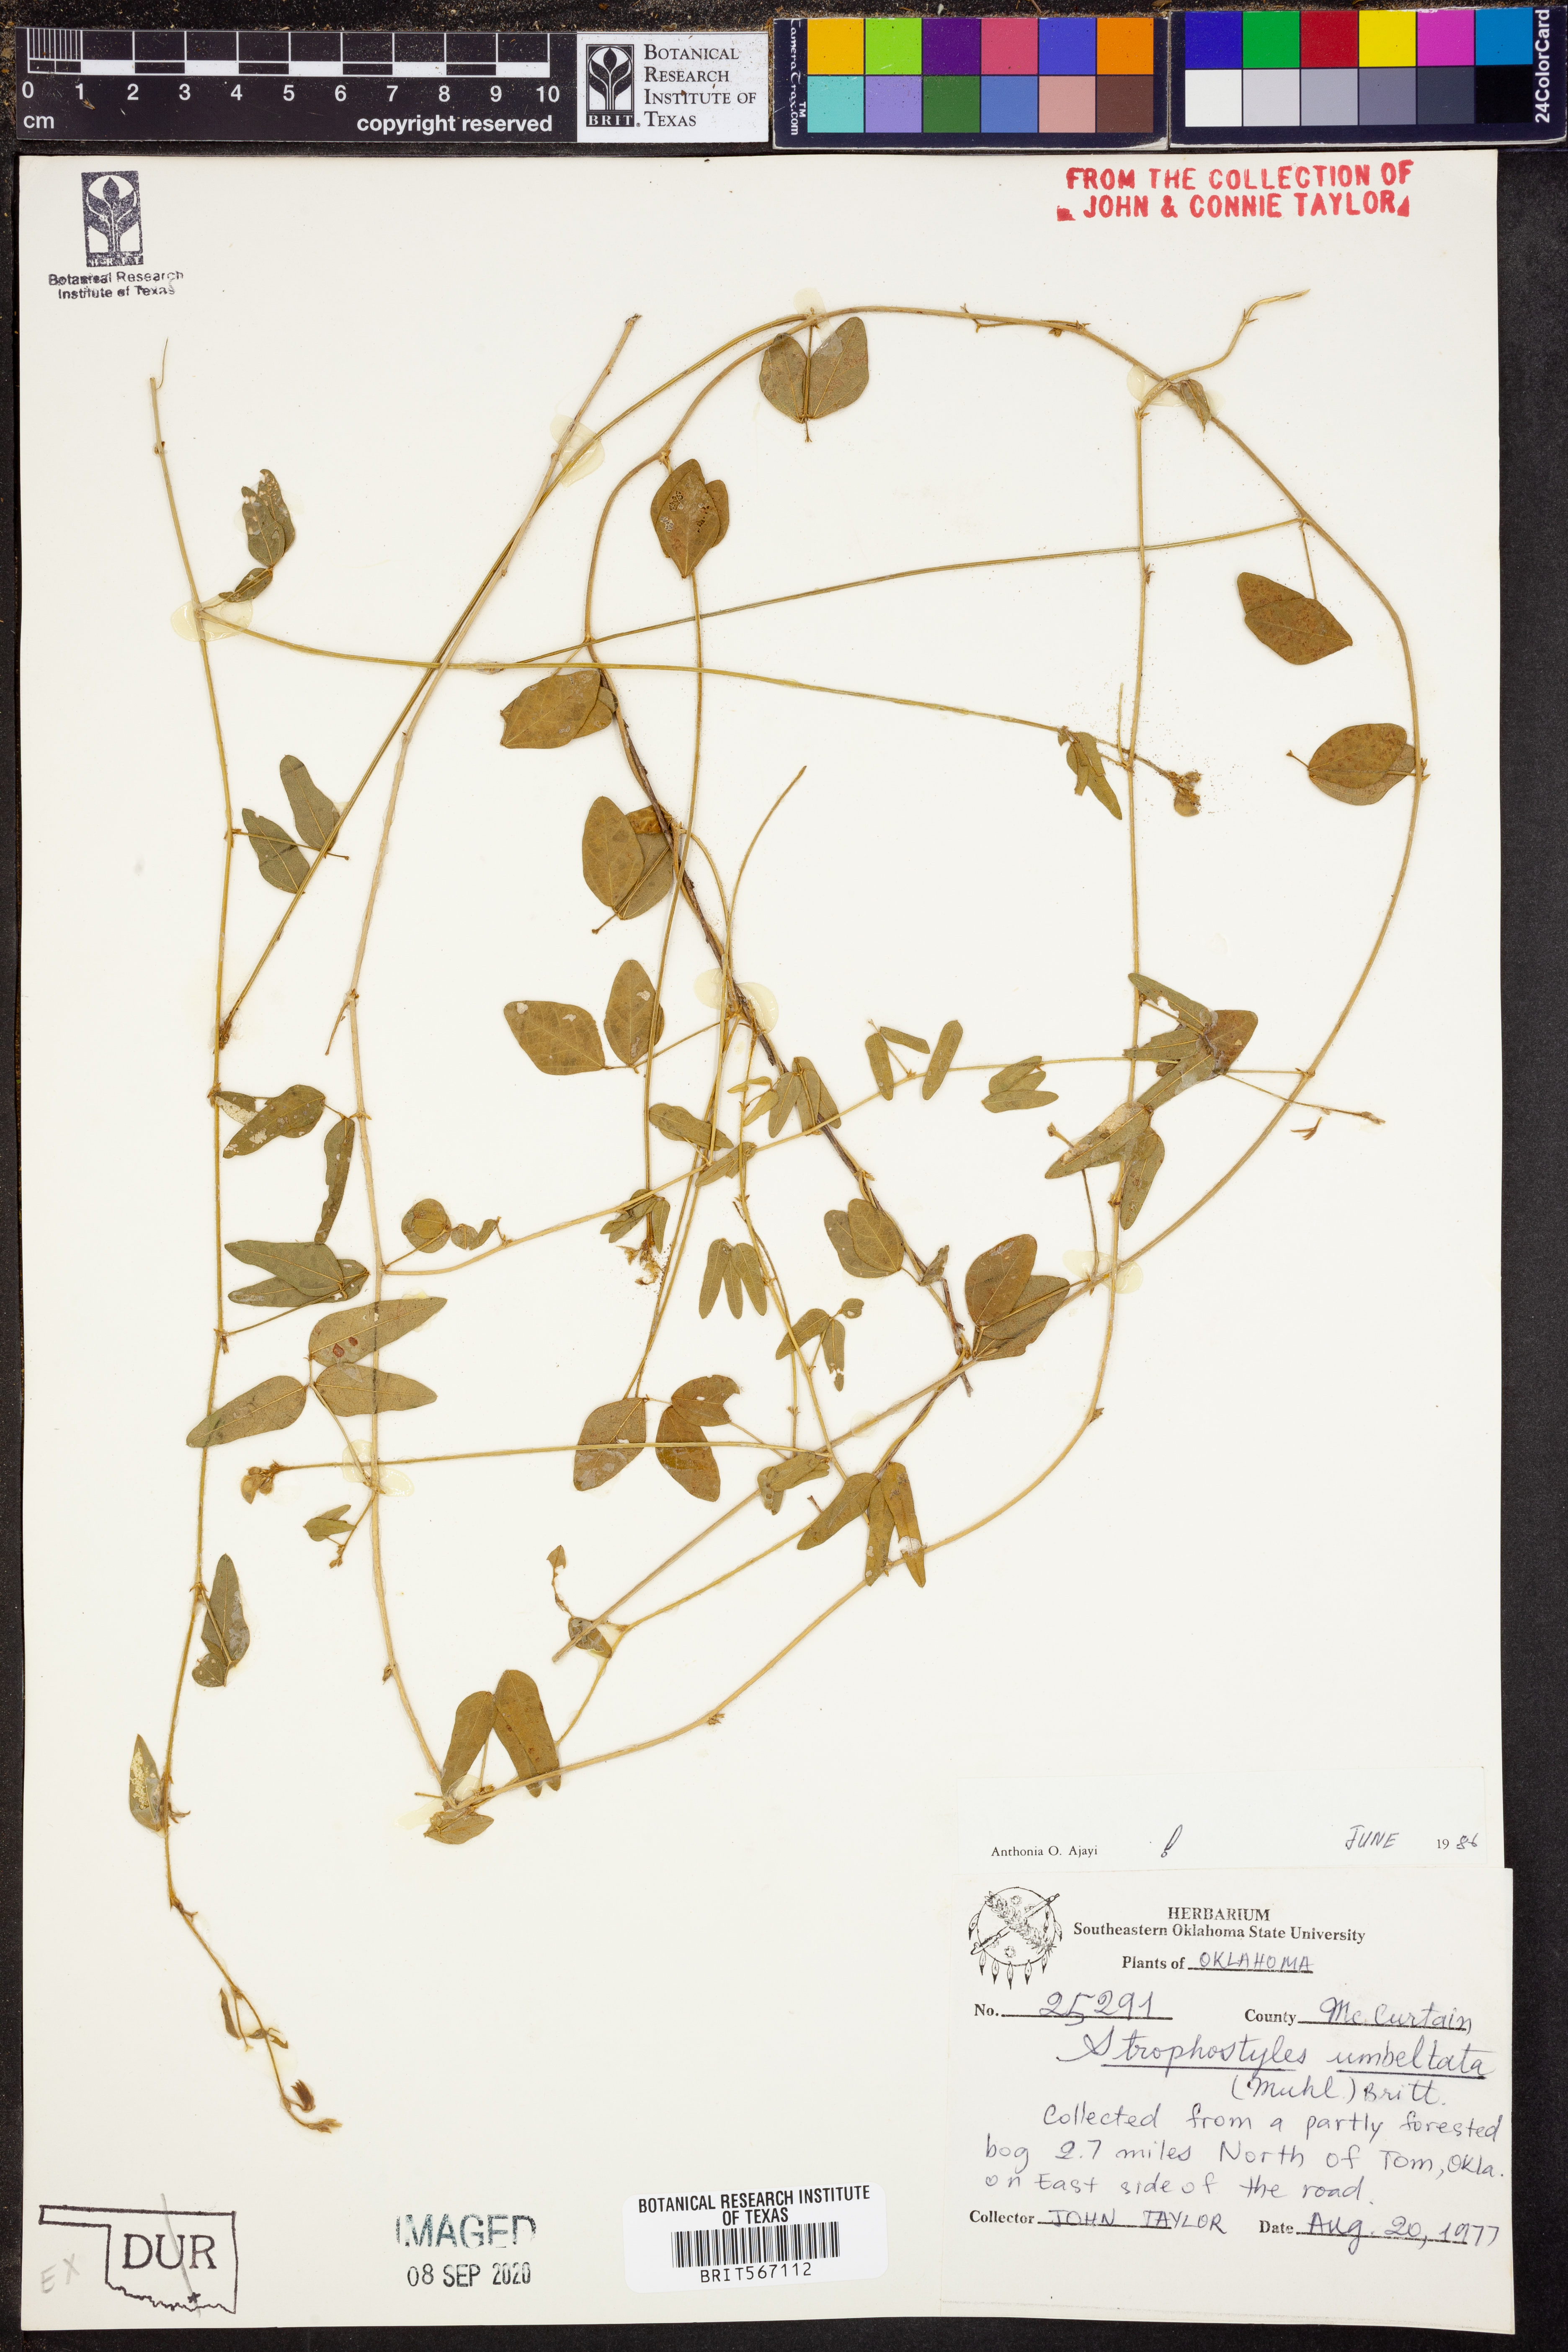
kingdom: Plantae
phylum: Tracheophyta
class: Magnoliopsida
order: Fabales
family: Fabaceae
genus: Strophostyles
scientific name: Strophostyles umbellata
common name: Perennial wild bean
